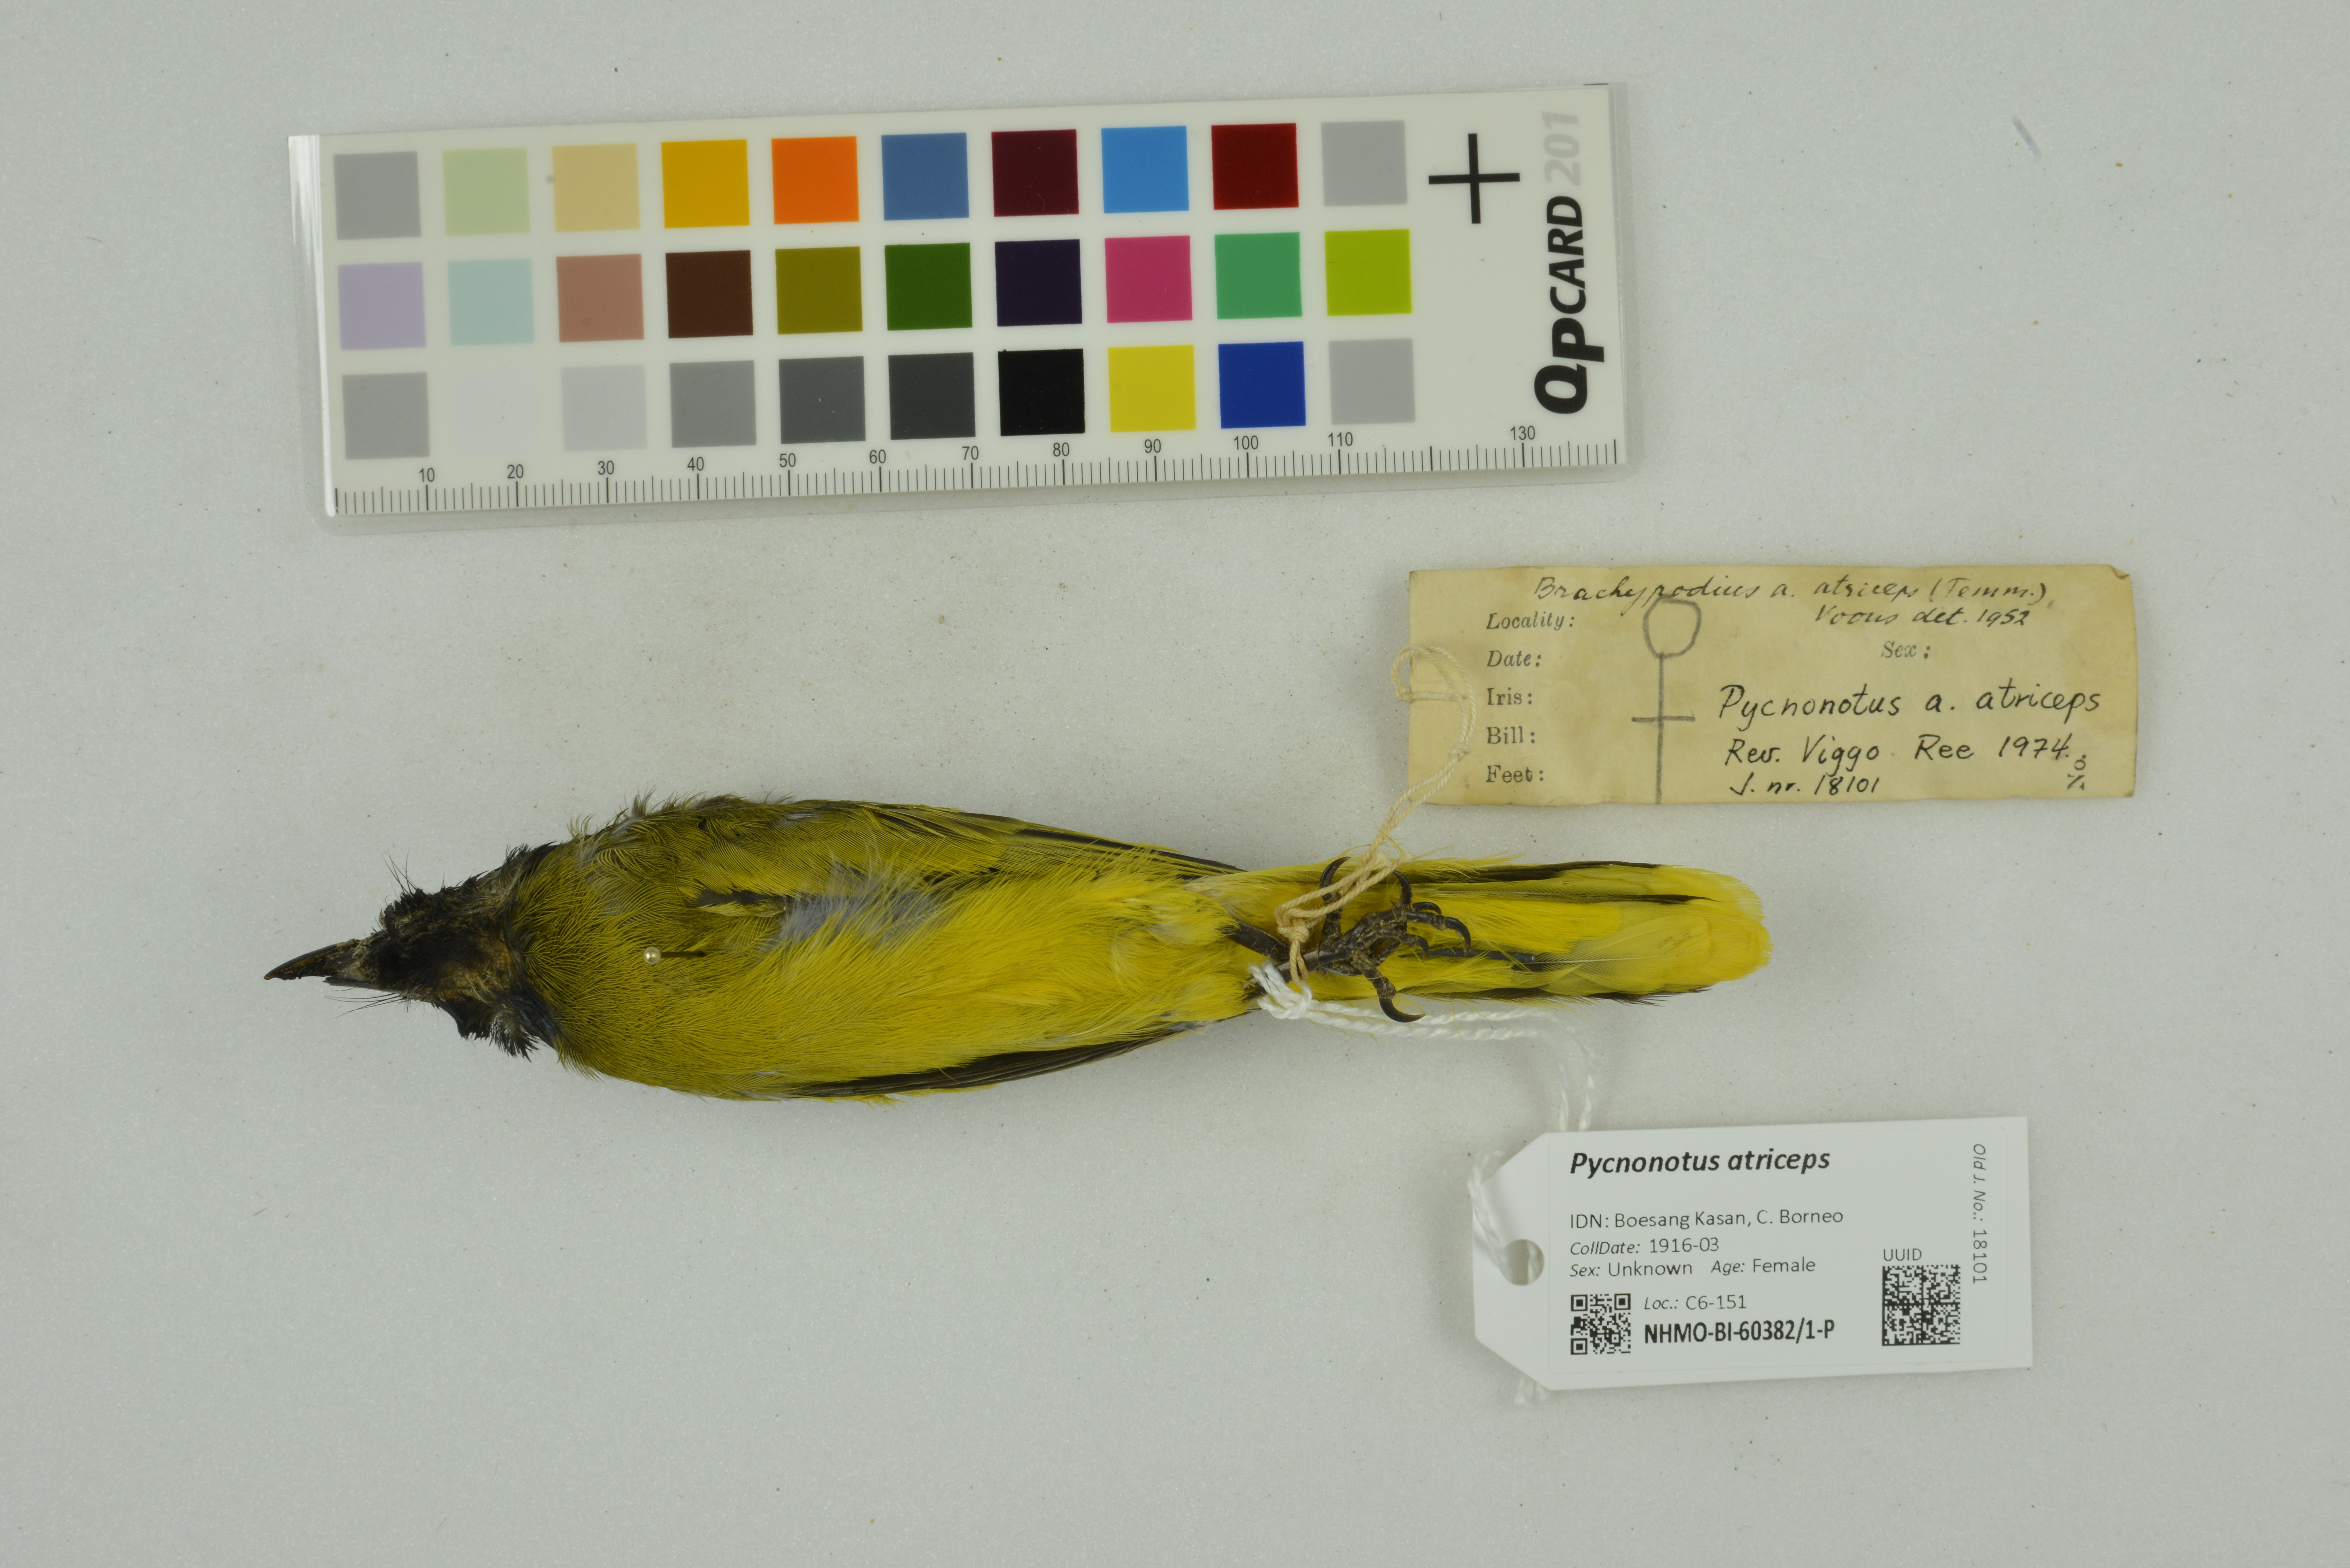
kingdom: Animalia
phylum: Chordata
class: Aves
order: Passeriformes
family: Pycnonotidae
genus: Brachypodius
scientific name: Brachypodius melanocephalos
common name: Black-headed bulbul
